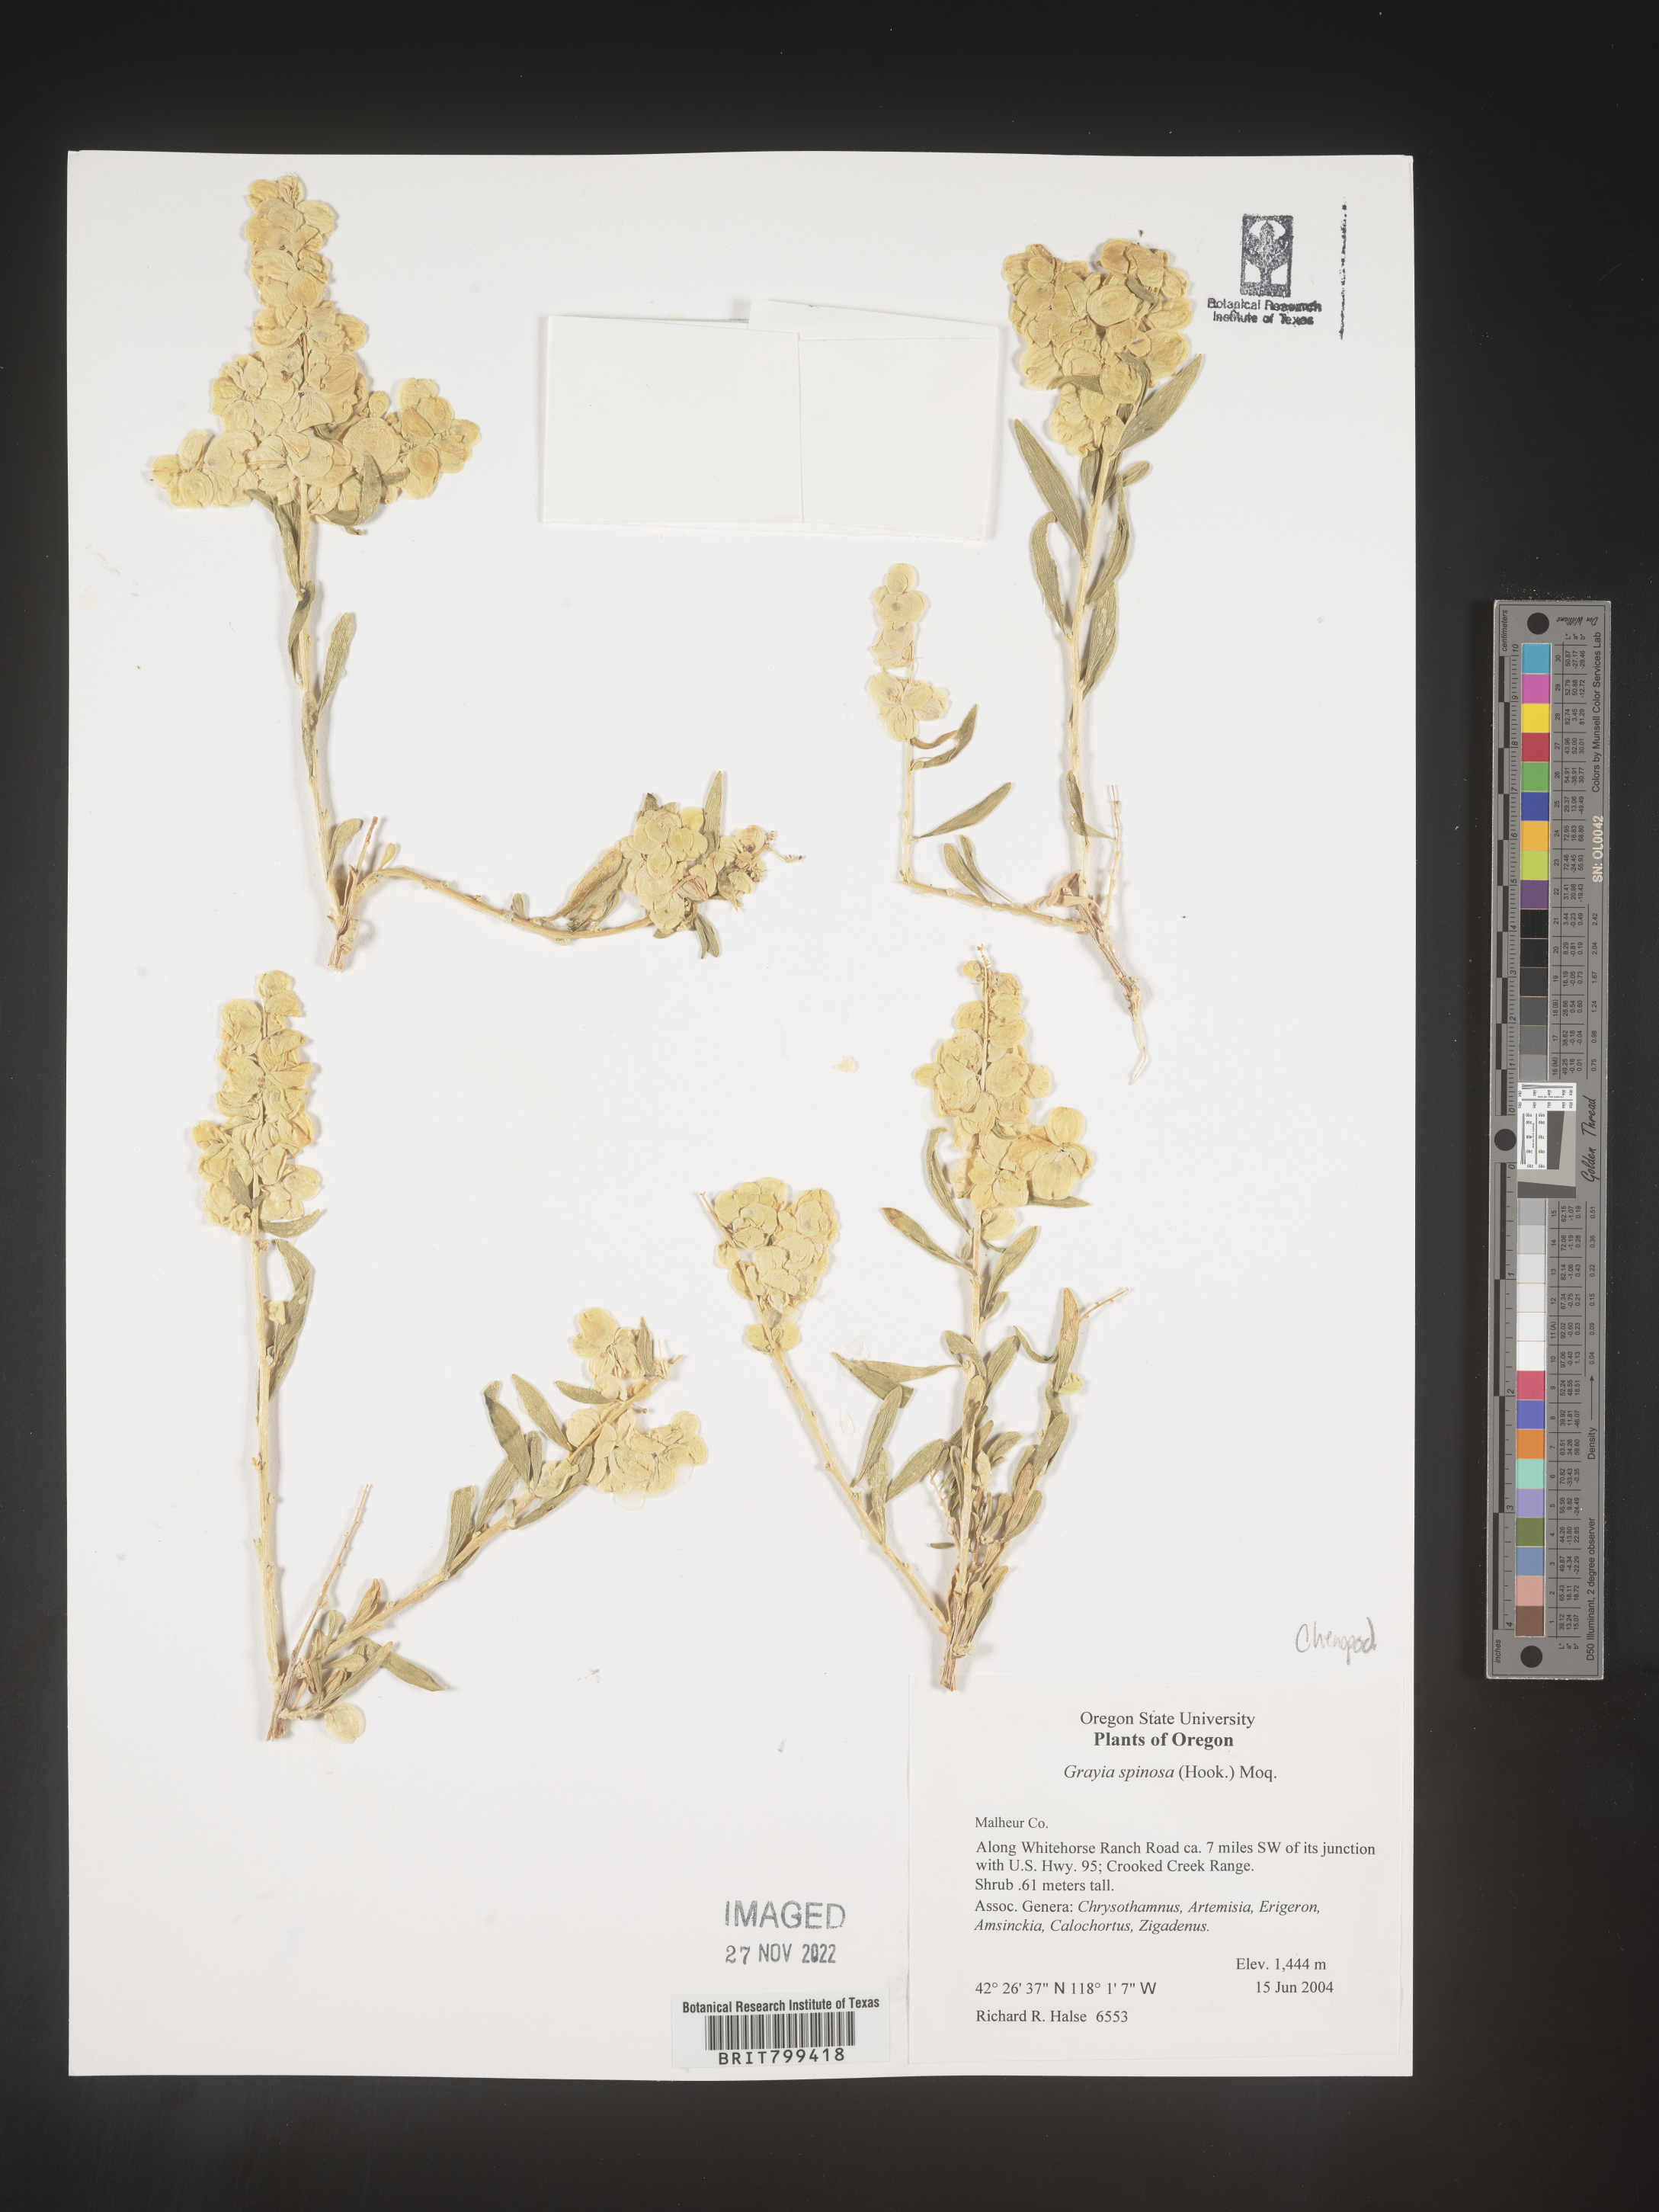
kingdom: Plantae
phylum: Tracheophyta
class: Magnoliopsida
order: Caryophyllales
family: Amaranthaceae
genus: Grayia
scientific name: Grayia spinosa
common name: Spiny hopsage
